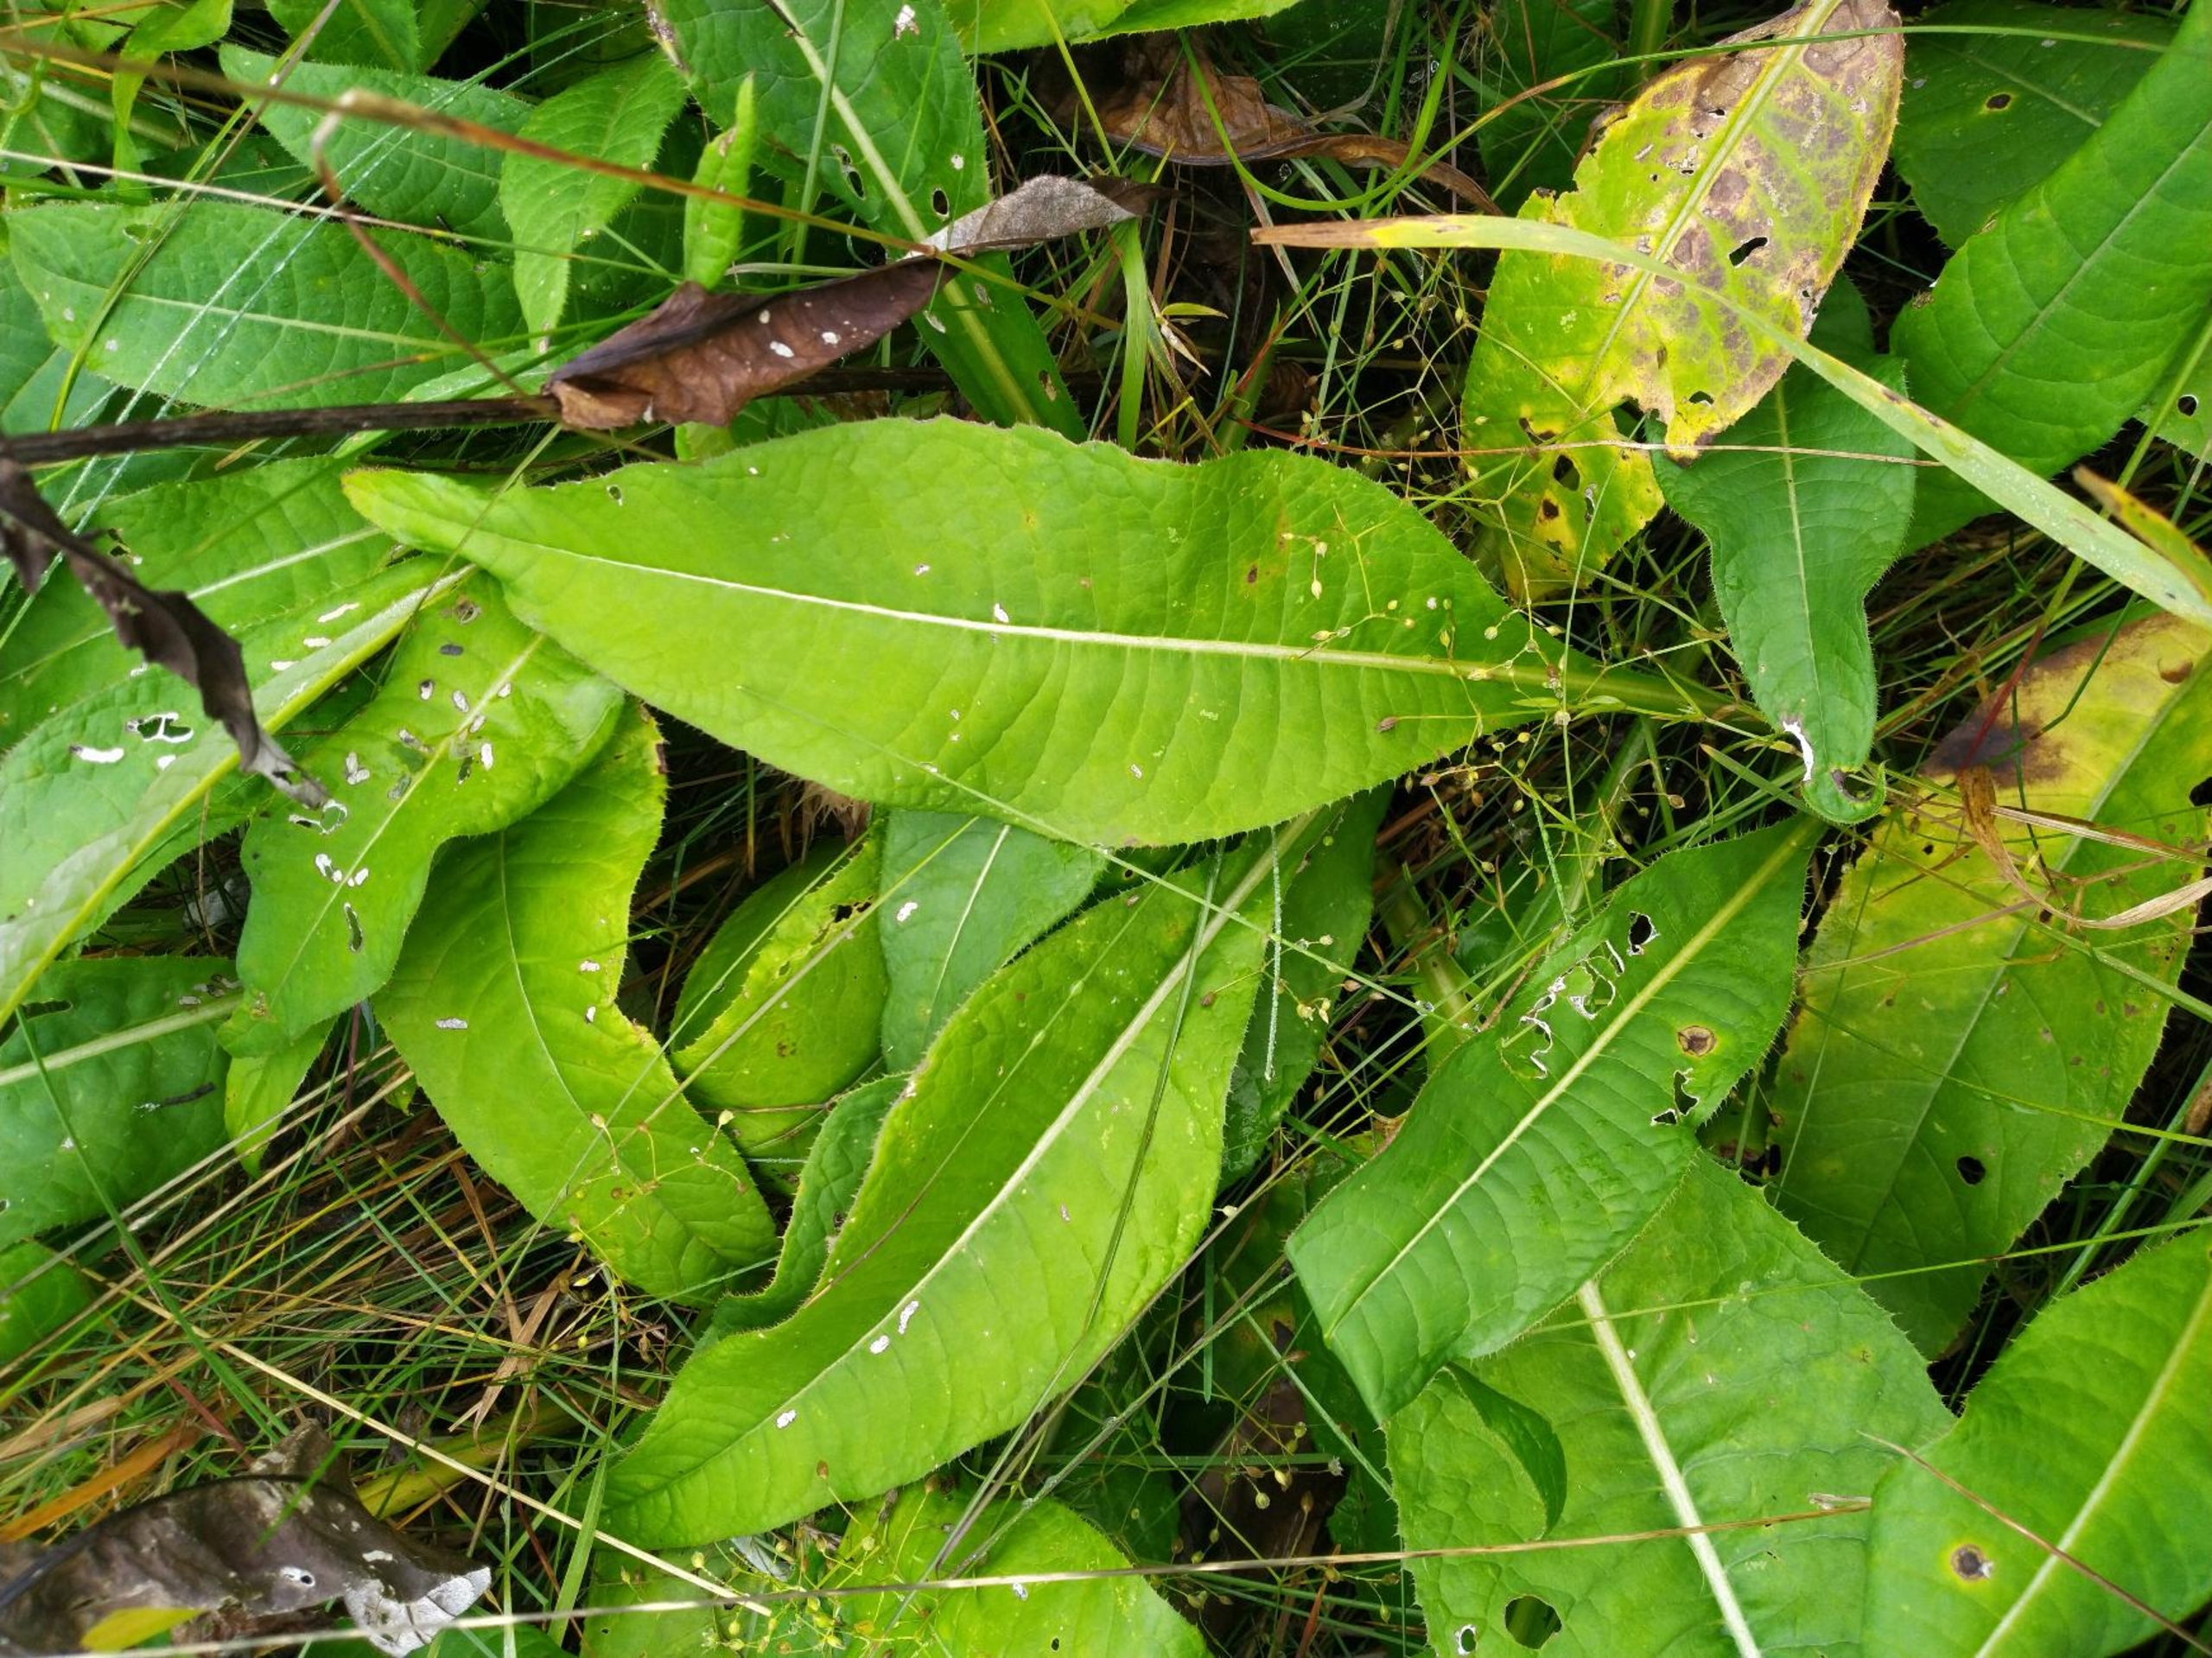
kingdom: Plantae
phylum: Tracheophyta
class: Magnoliopsida
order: Asterales
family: Asteraceae
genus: Cirsium
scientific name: Cirsium heterophyllum
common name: Forskelligbladet tidsel
